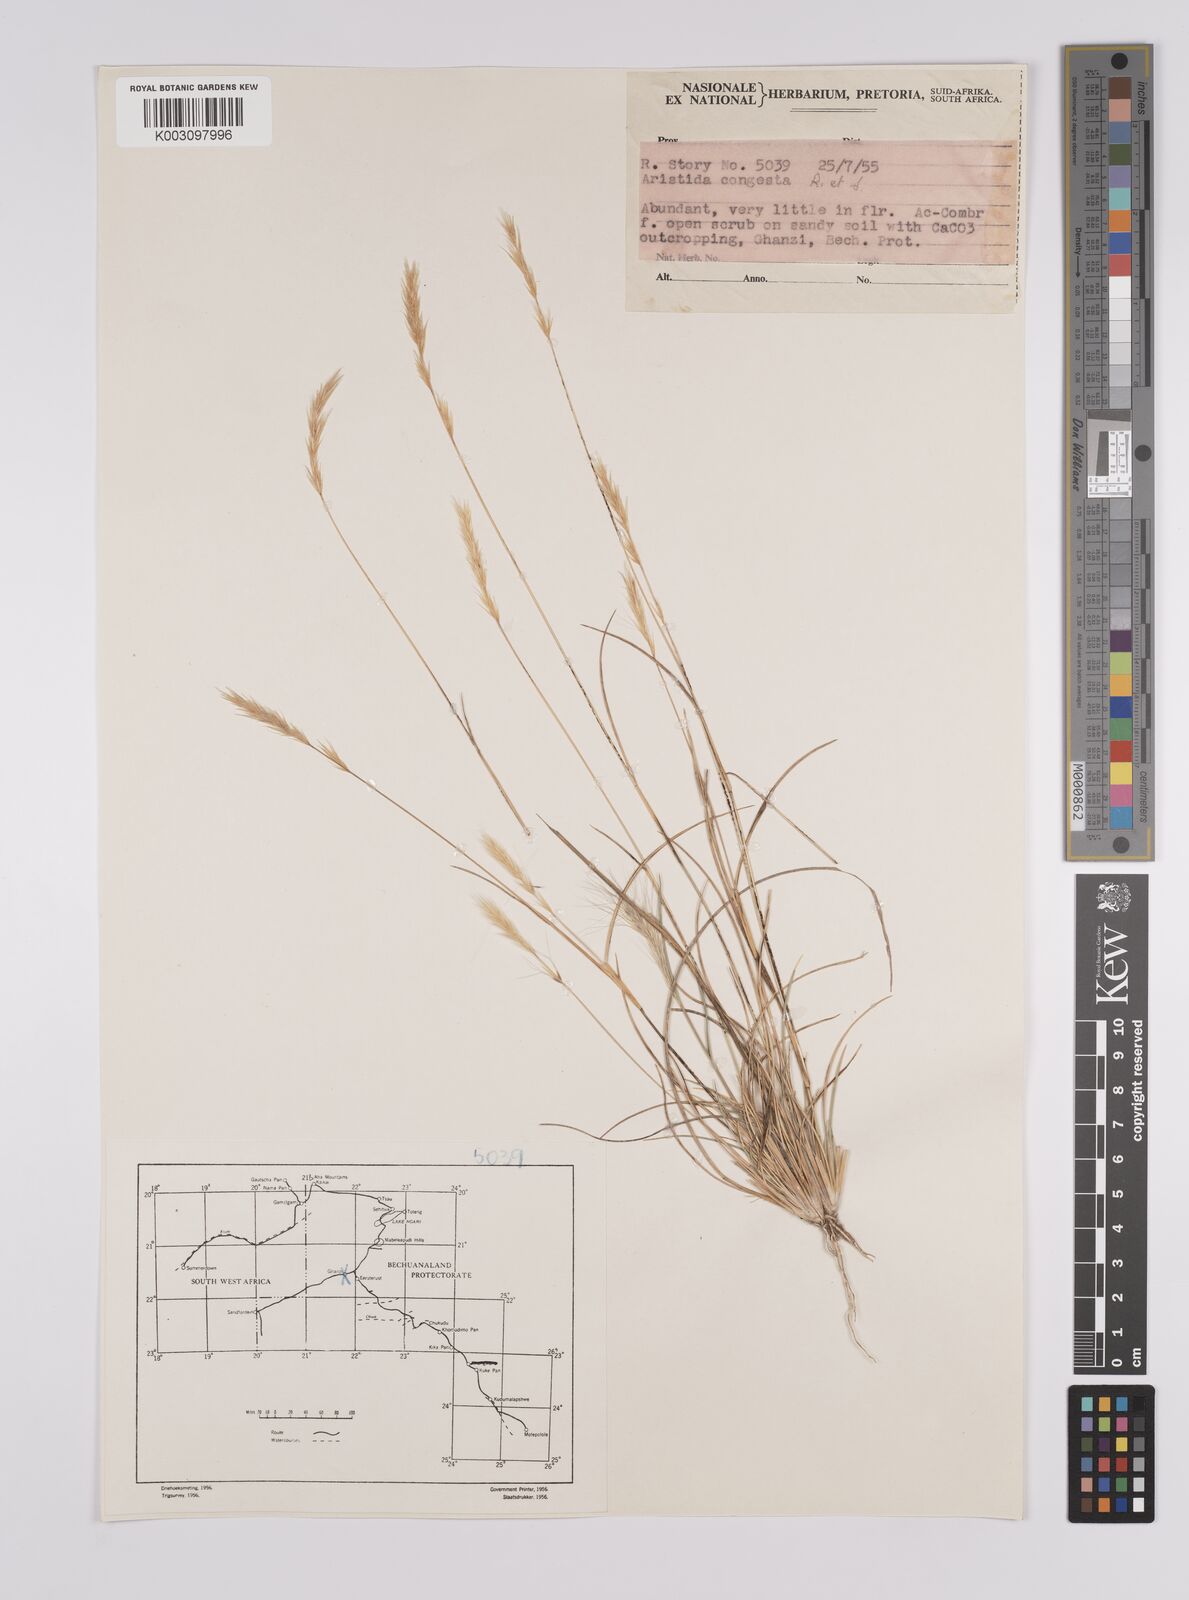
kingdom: Plantae
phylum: Tracheophyta
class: Liliopsida
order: Poales
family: Poaceae
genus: Aristida
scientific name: Aristida congesta
